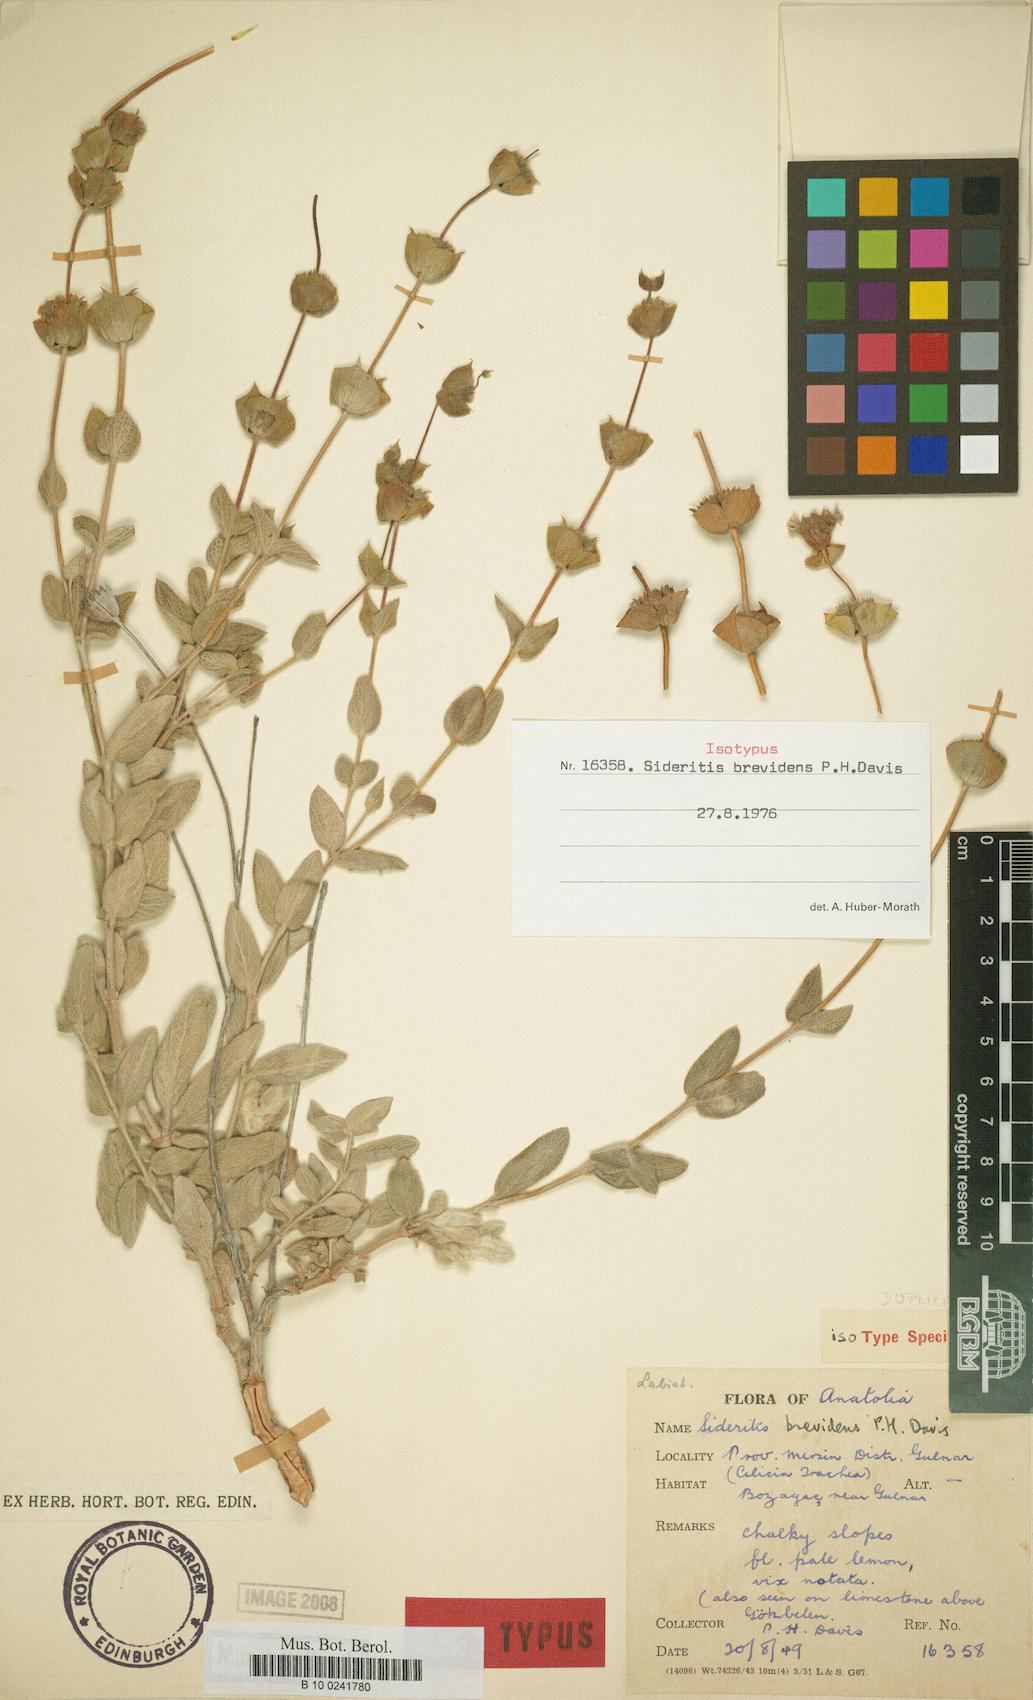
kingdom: Plantae
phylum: Tracheophyta
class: Magnoliopsida
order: Lamiales
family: Lamiaceae
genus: Sideritis
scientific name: Sideritis brevidens
